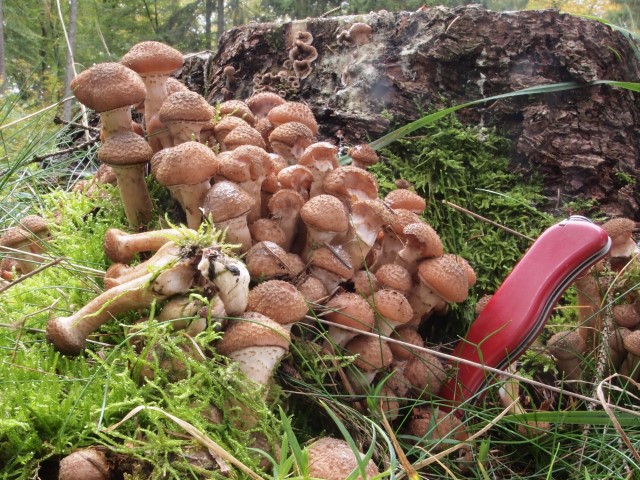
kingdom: Fungi
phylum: Basidiomycota
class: Agaricomycetes
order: Agaricales
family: Physalacriaceae
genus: Armillaria
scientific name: Armillaria ostoyae
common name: mørk honningsvamp
